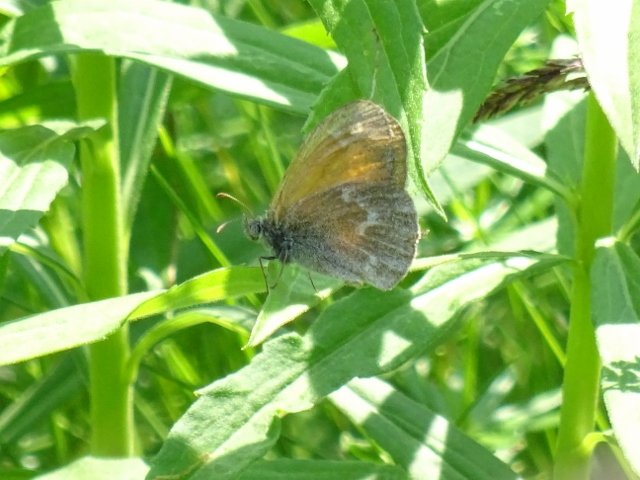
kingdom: Animalia
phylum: Arthropoda
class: Insecta
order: Lepidoptera
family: Nymphalidae
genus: Coenonympha
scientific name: Coenonympha tullia
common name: Large Heath
